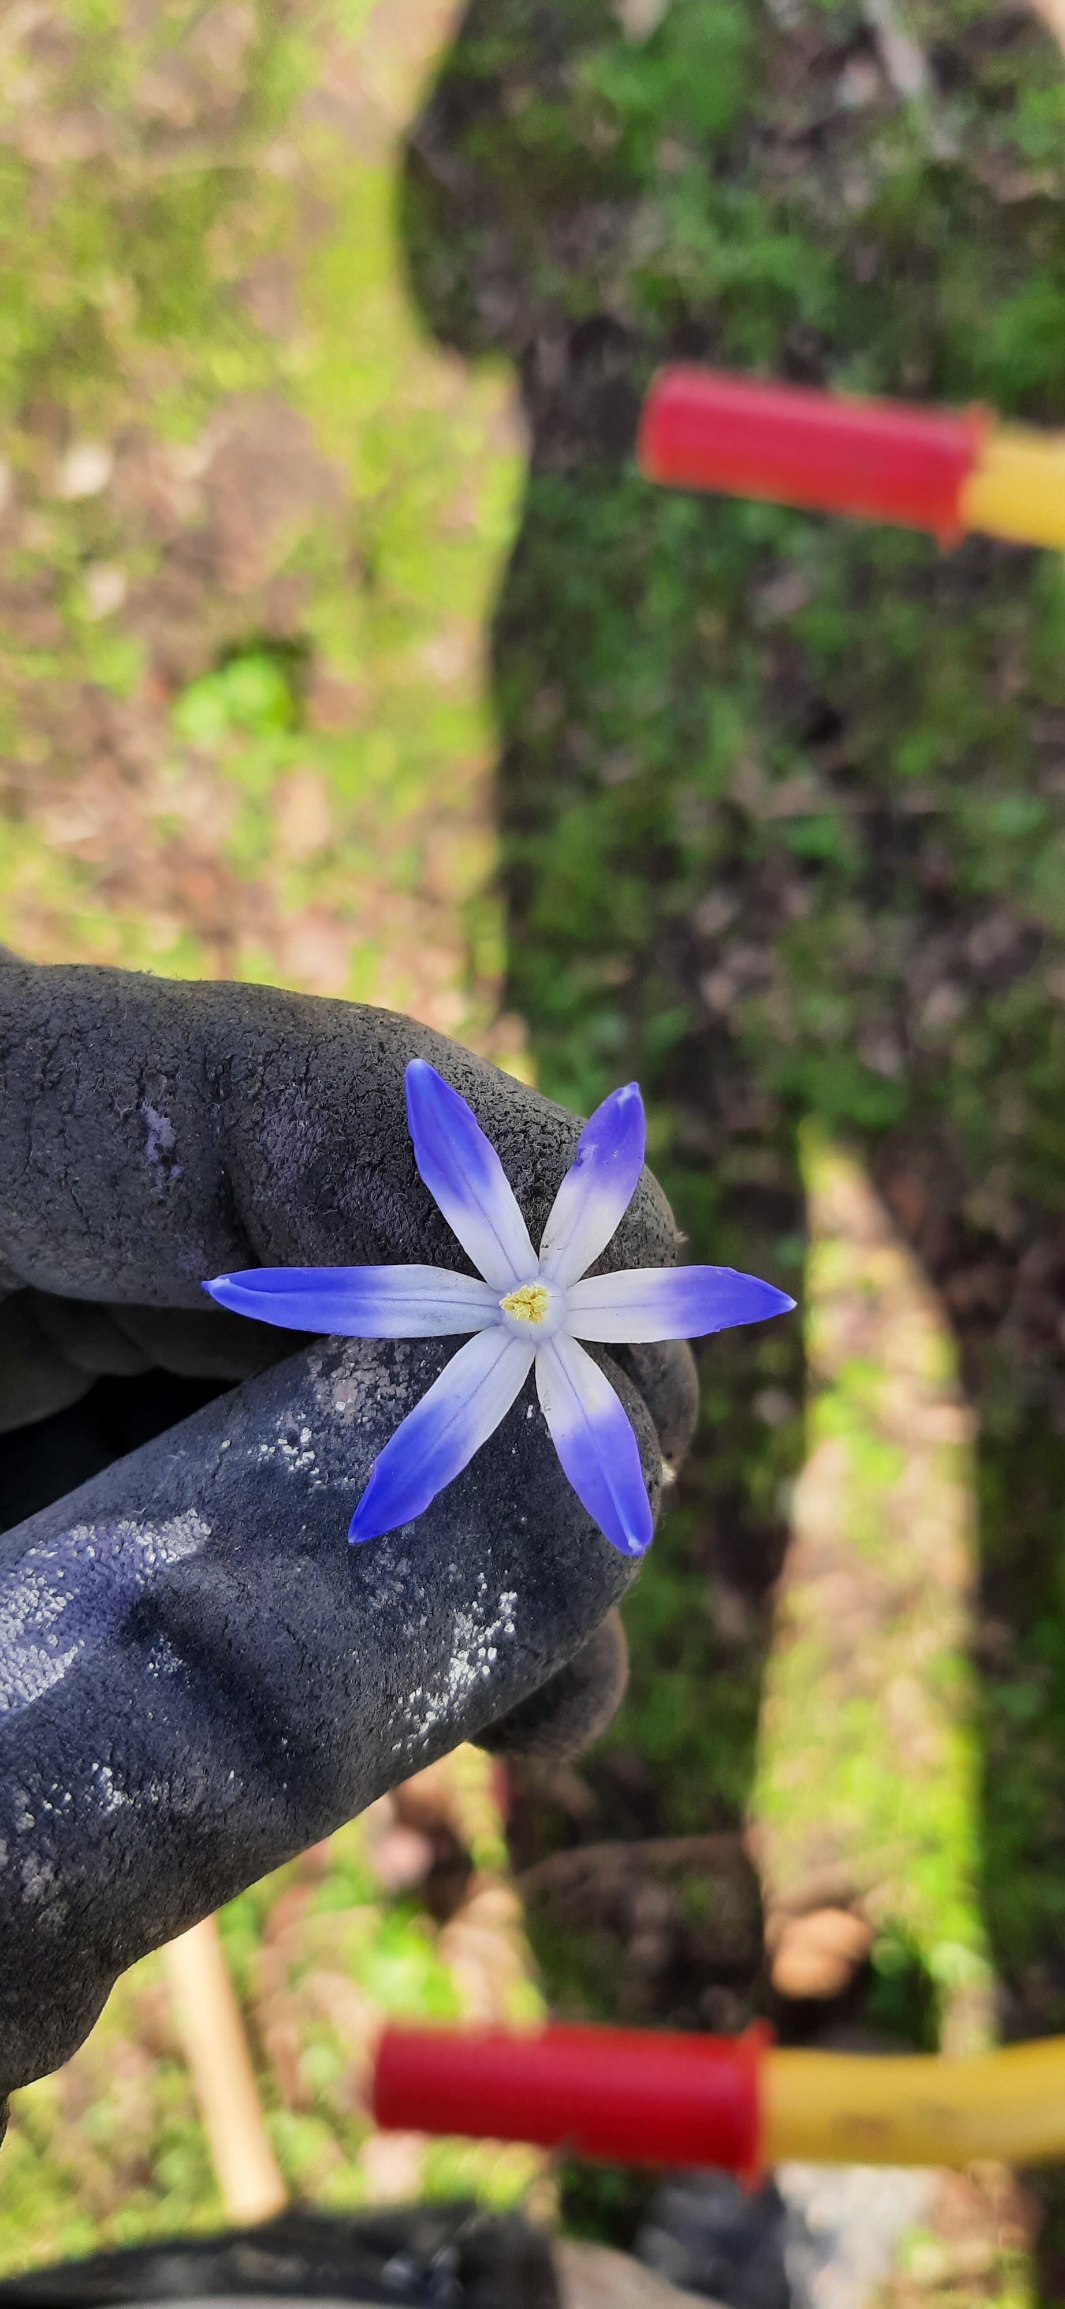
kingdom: Plantae
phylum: Tracheophyta
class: Liliopsida
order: Asparagales
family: Asparagaceae
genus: Scilla
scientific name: Scilla forbesii
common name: Almindelig snepryd
